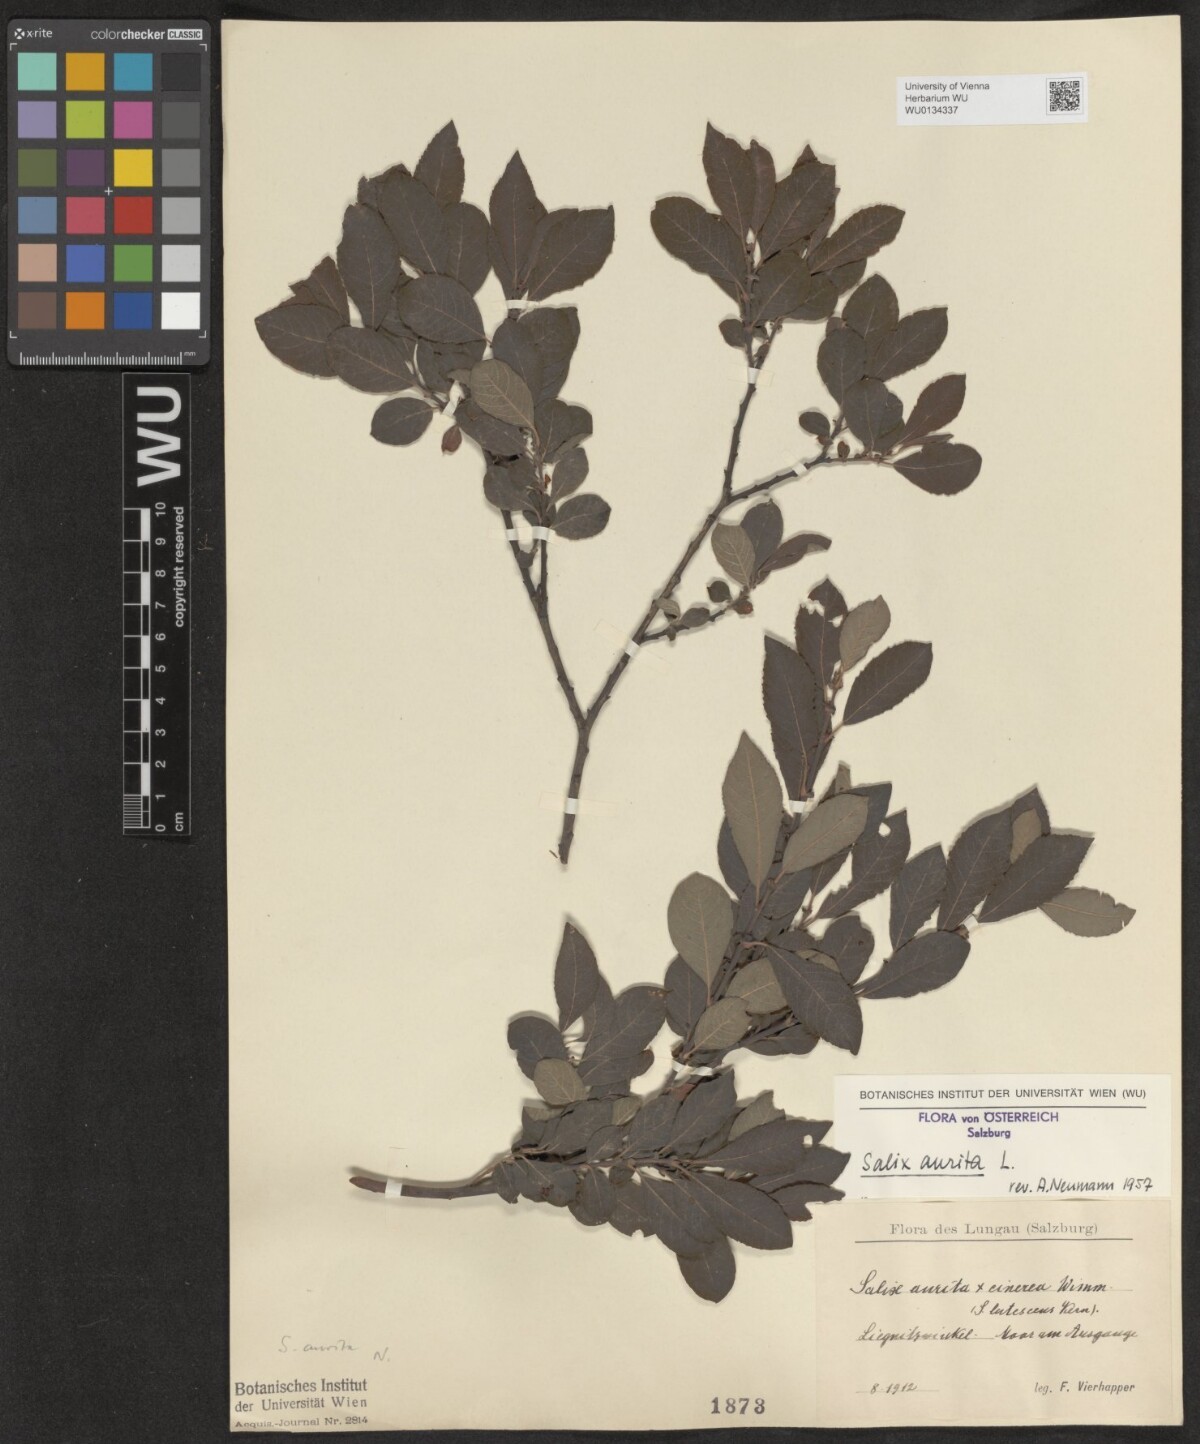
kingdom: Plantae
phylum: Tracheophyta
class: Magnoliopsida
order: Malpighiales
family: Salicaceae
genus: Salix
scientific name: Salix aurita
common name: Eared willow
